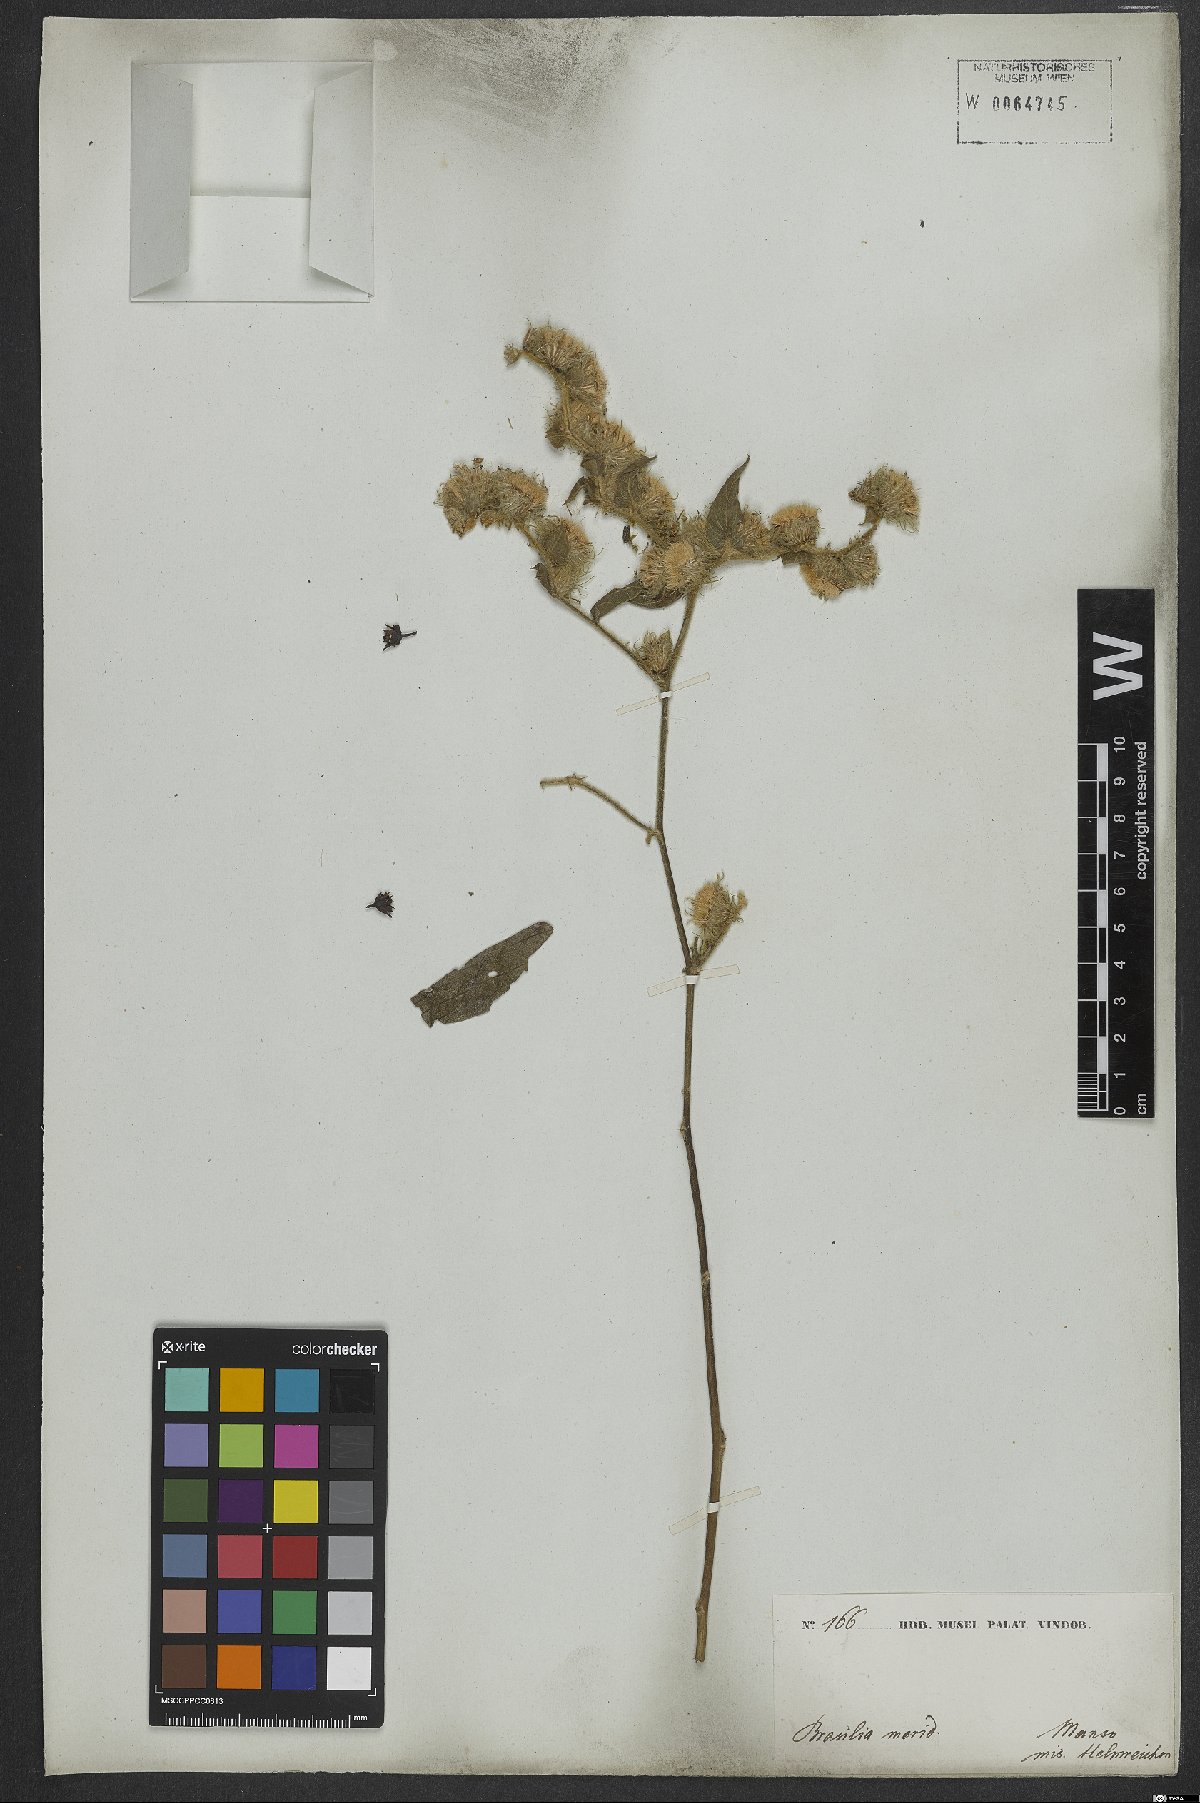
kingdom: Plantae
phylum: Tracheophyta
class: Magnoliopsida
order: Asterales
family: Asteraceae
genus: Lepidaploa
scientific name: Lepidaploa eriolepis
